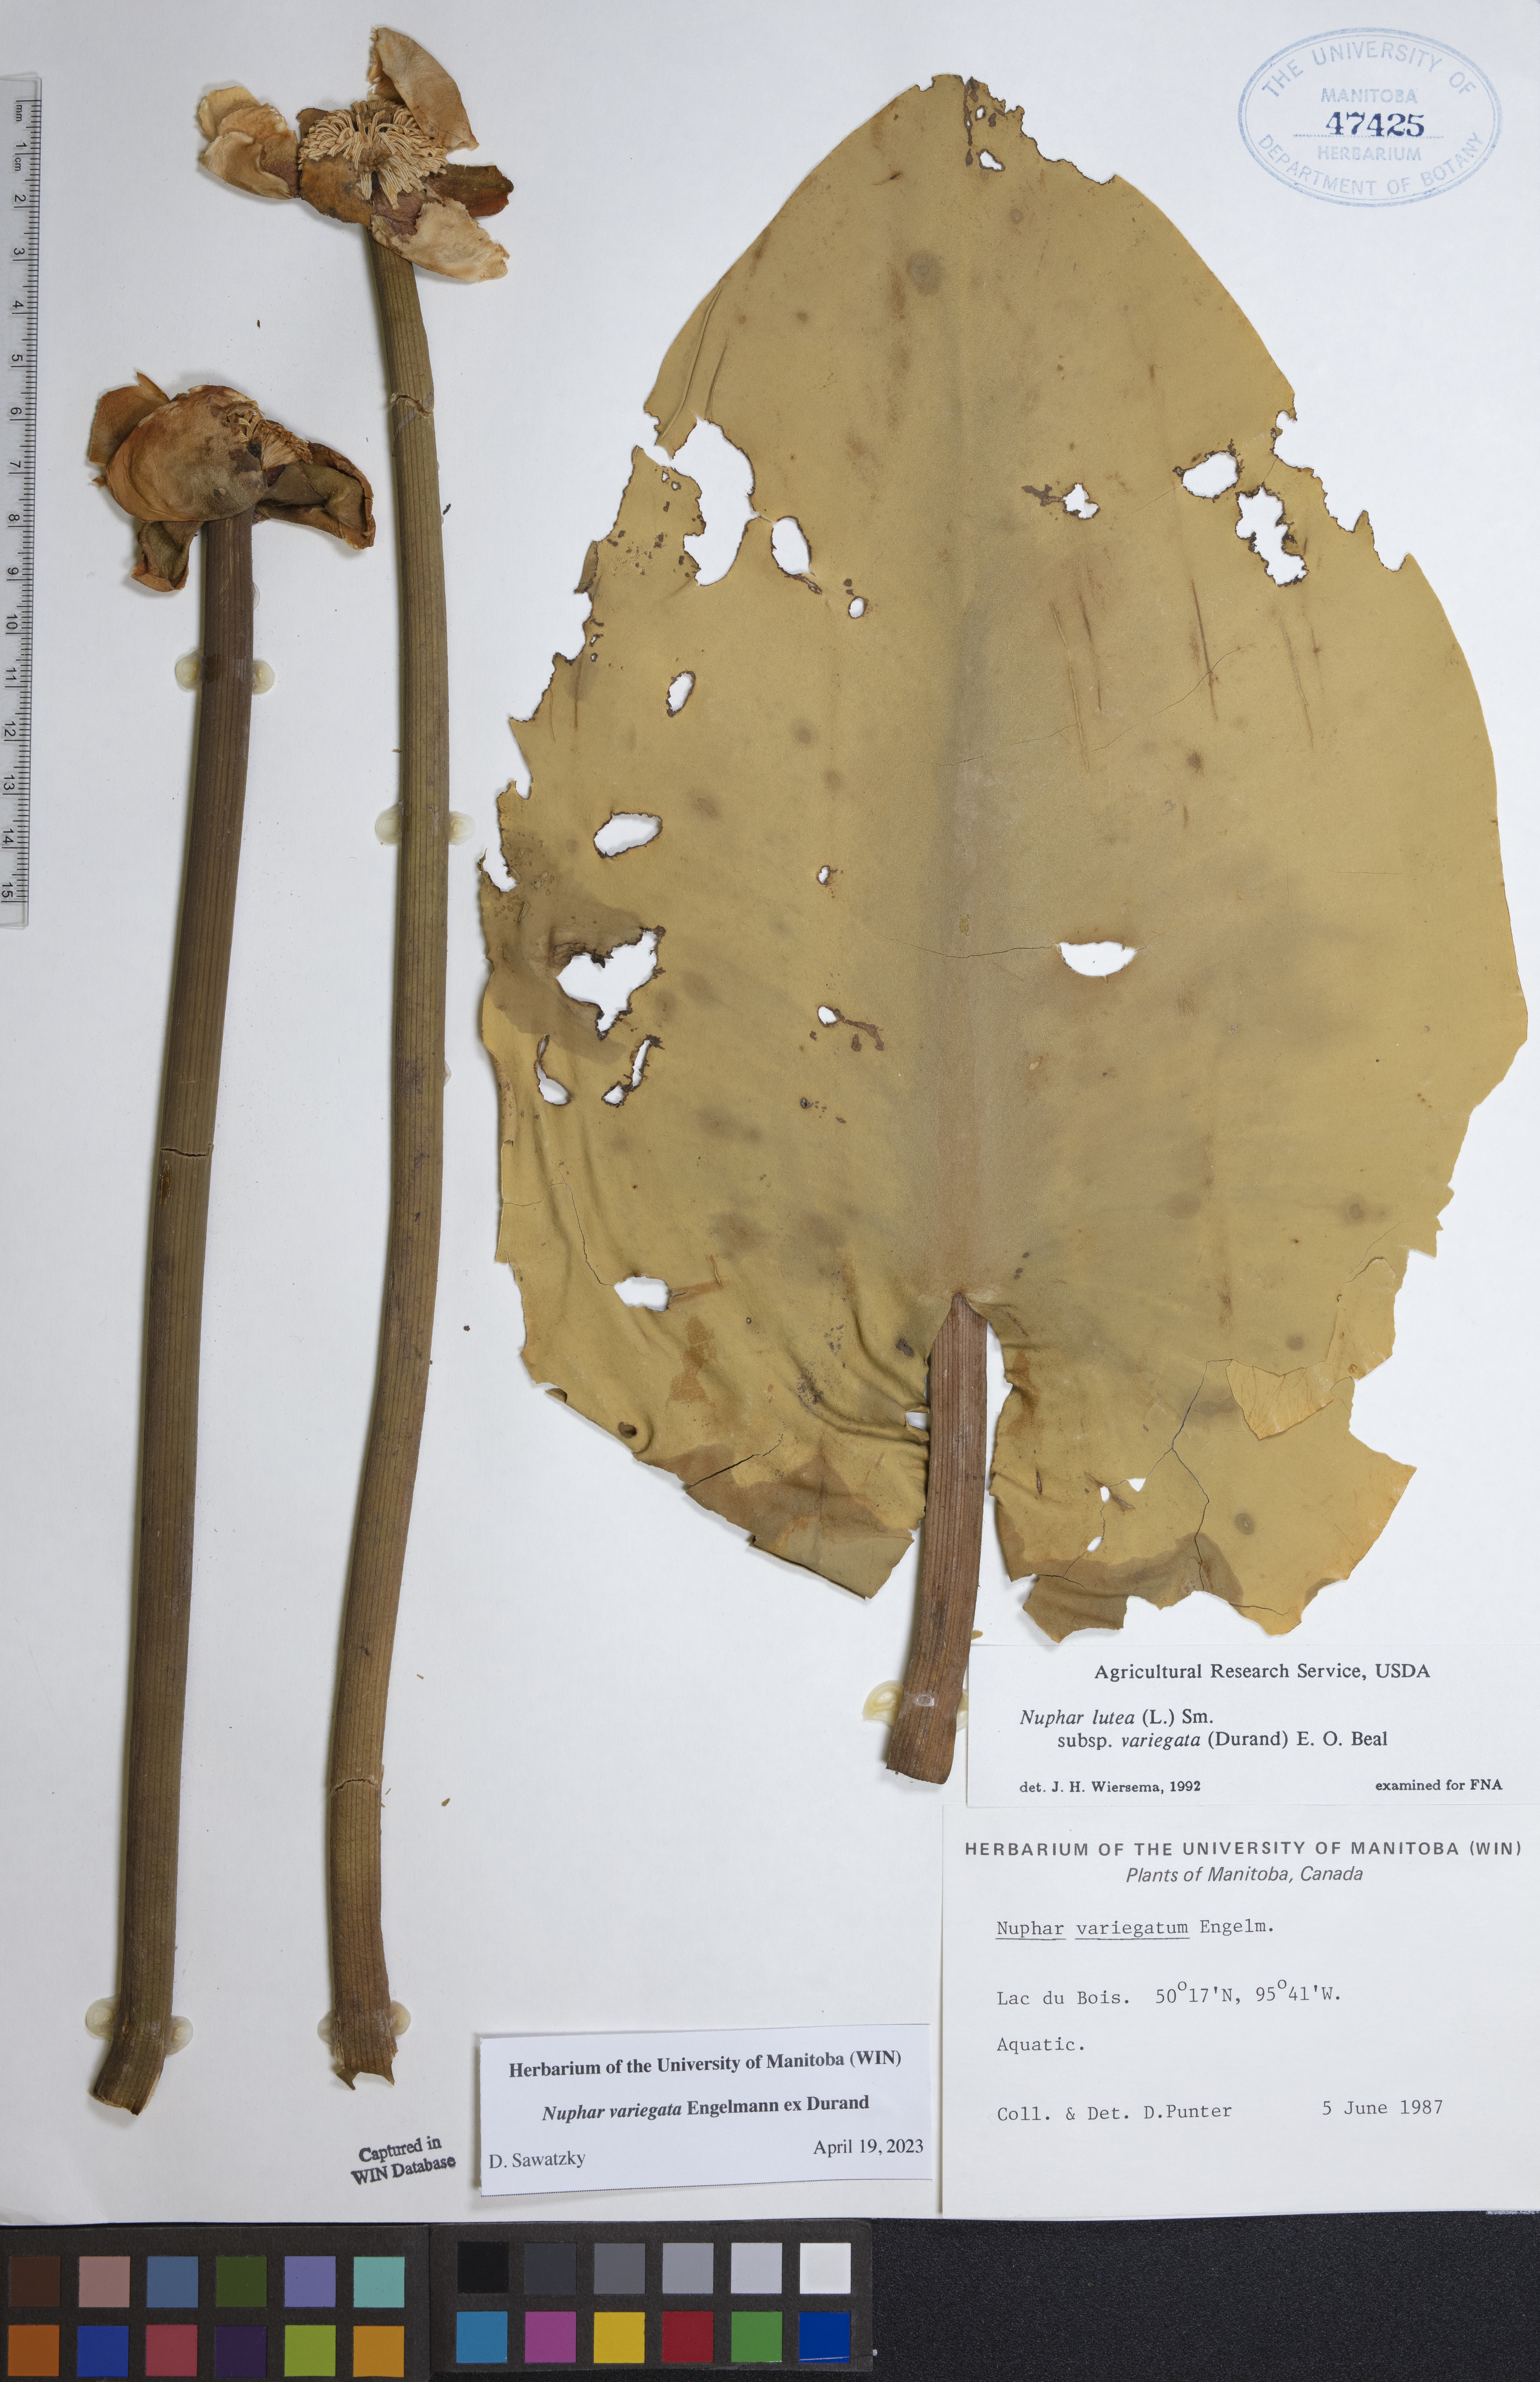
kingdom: Plantae
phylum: Tracheophyta
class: Magnoliopsida
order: Nymphaeales
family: Nymphaeaceae
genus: Nuphar
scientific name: Nuphar variegata
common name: Beaver-root
